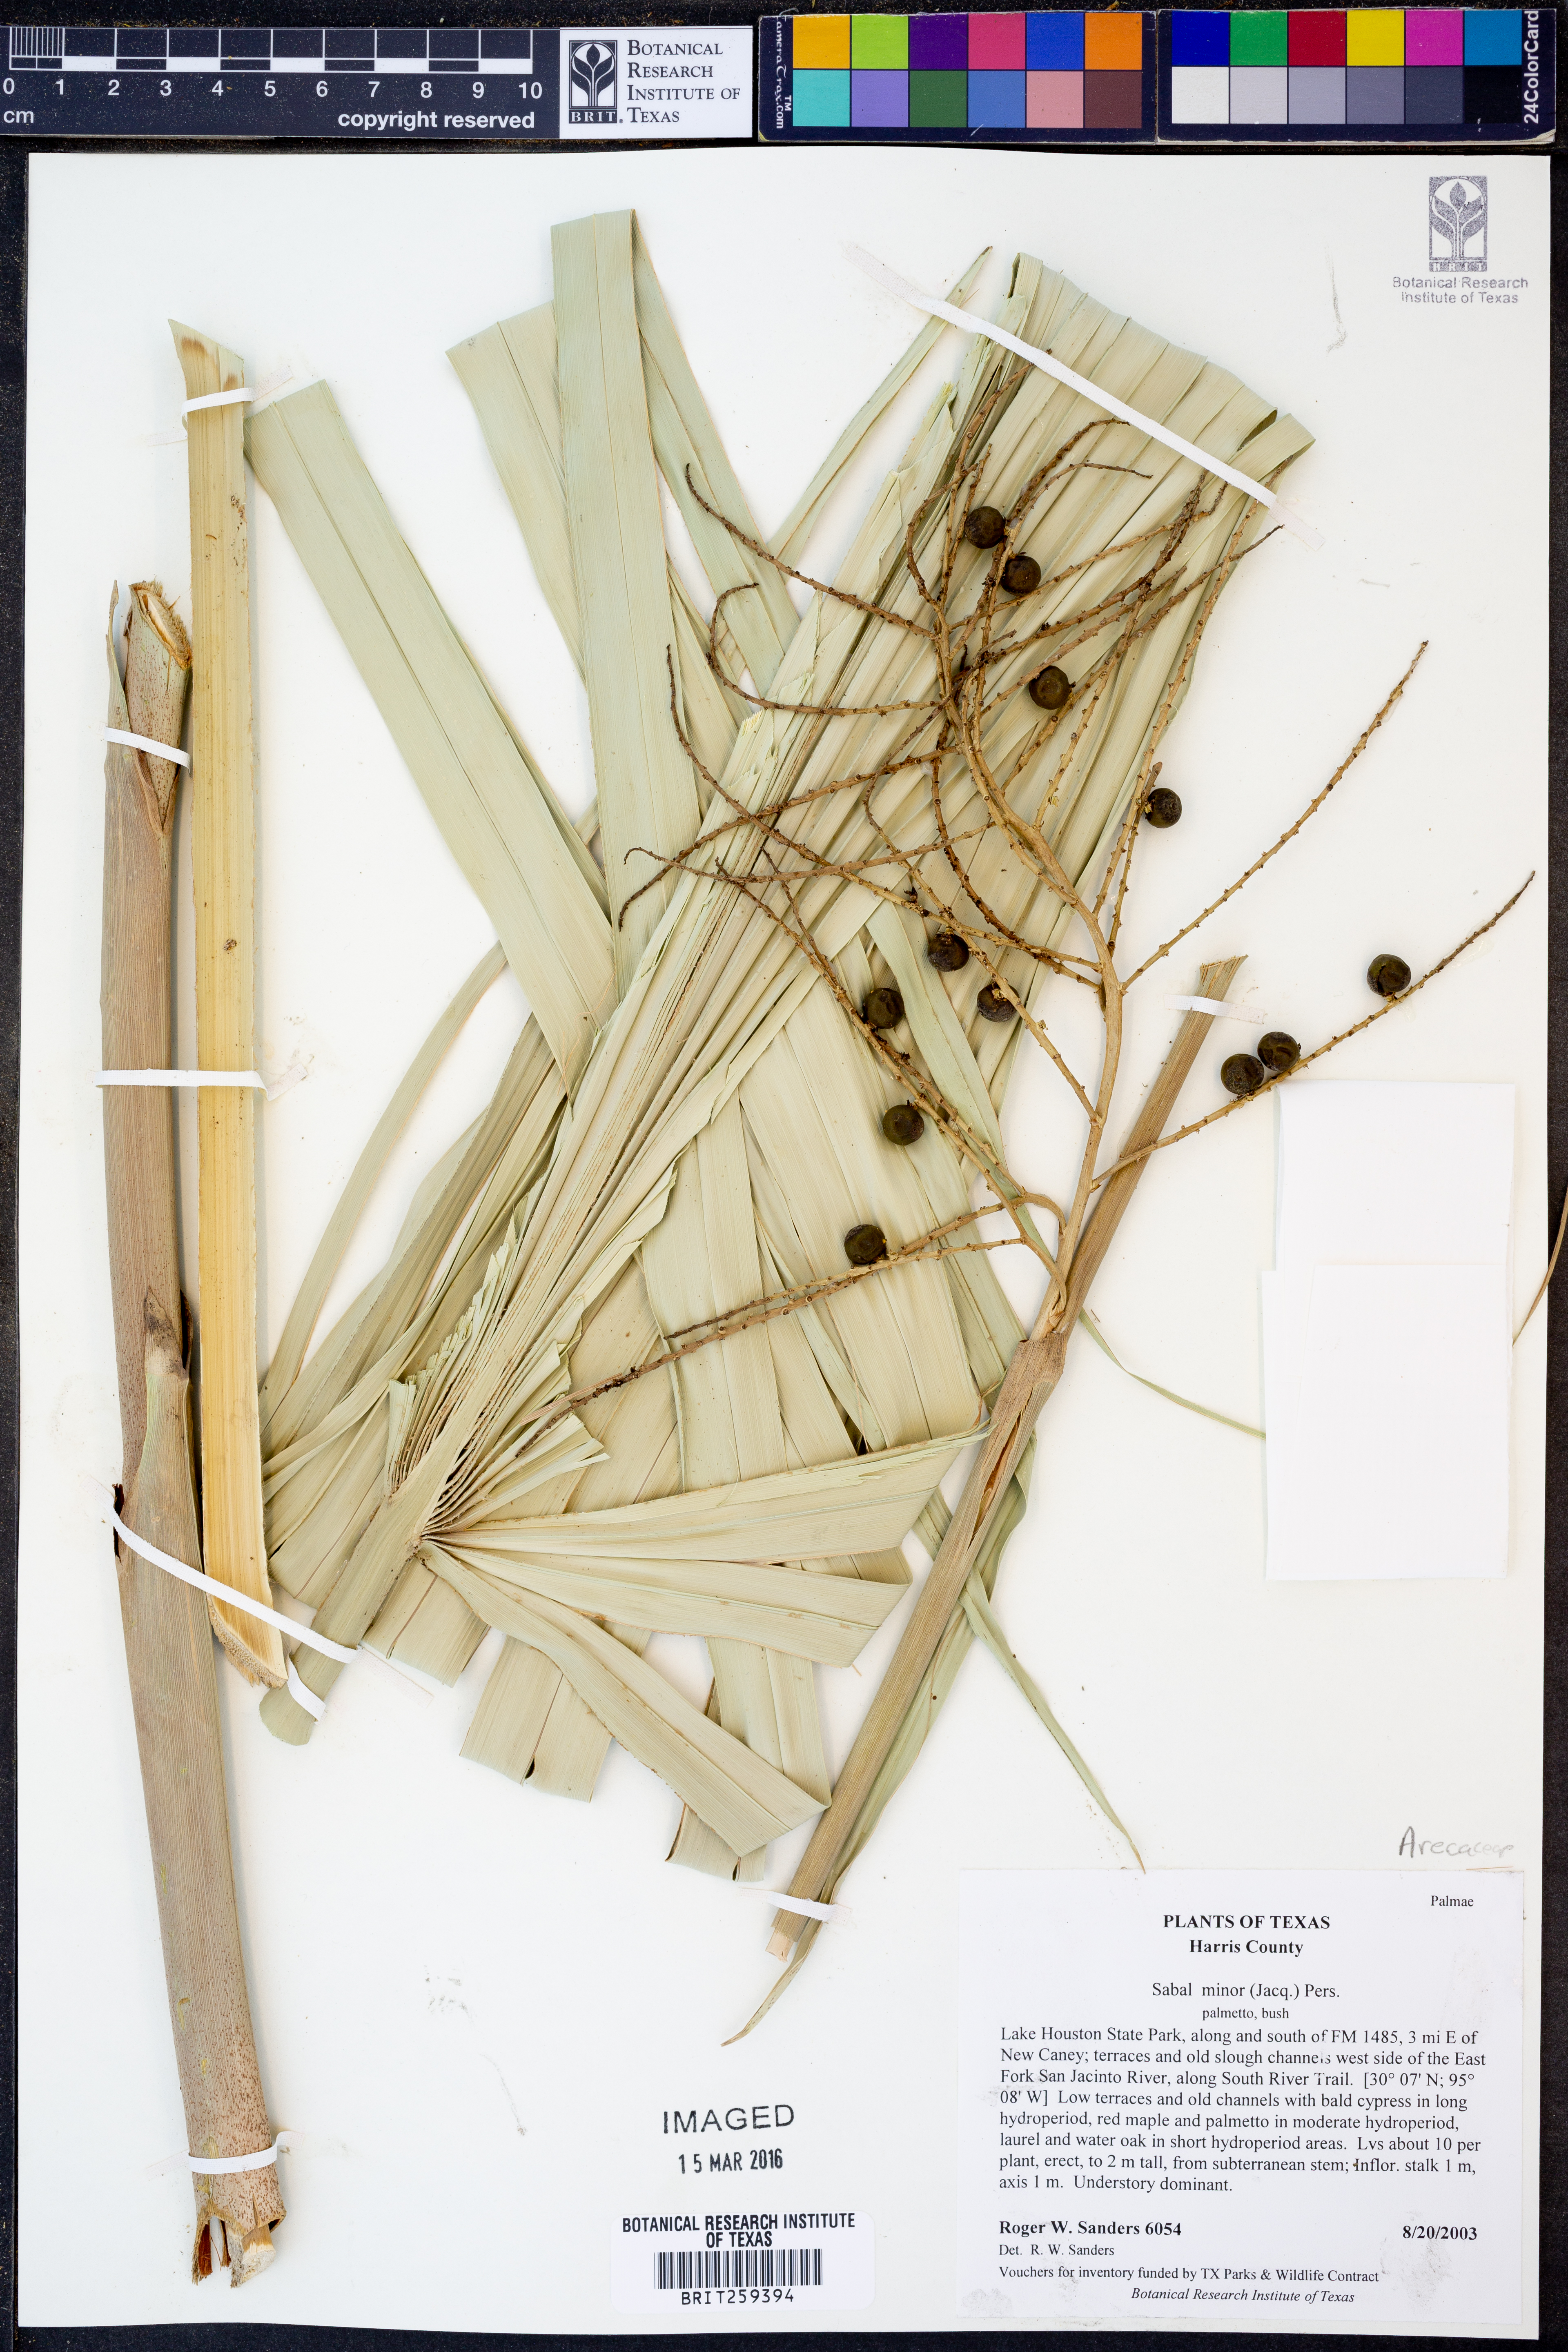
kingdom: Plantae
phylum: Tracheophyta
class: Liliopsida
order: Arecales
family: Arecaceae
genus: Sabal
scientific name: Sabal minor
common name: Dwarf palmetto
